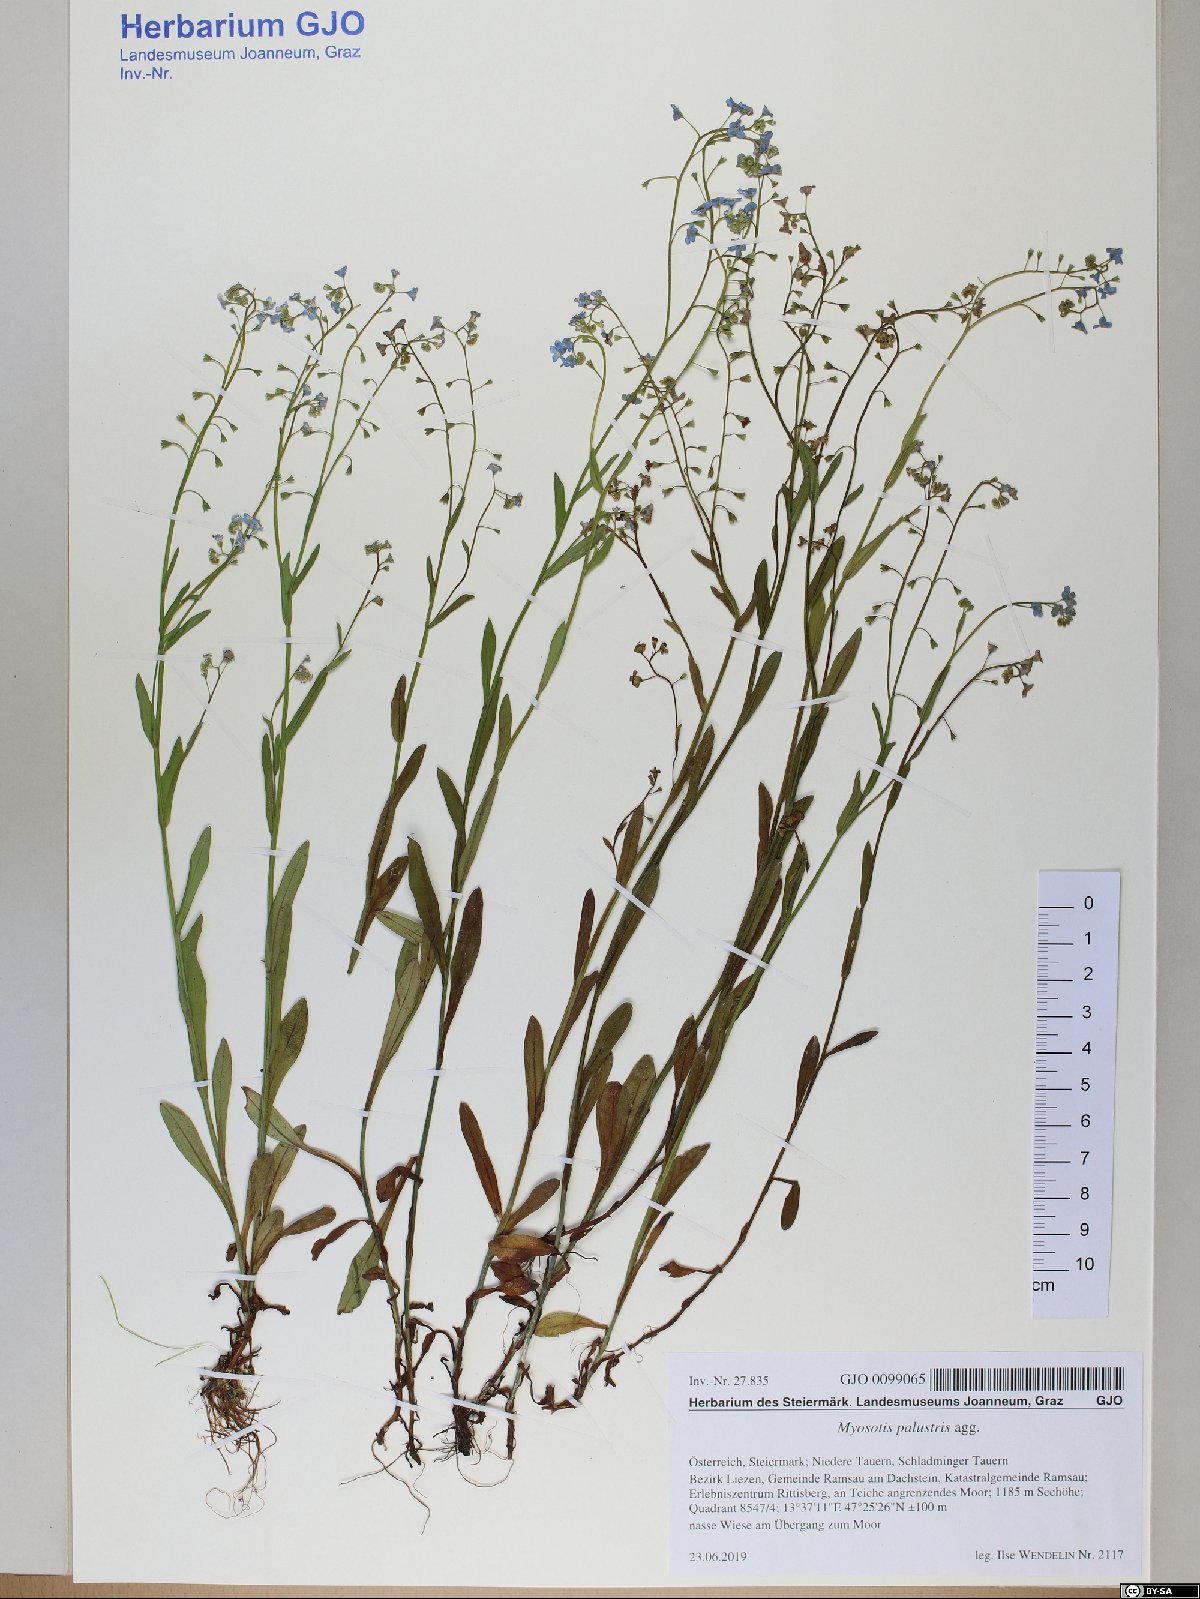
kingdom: Plantae
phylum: Tracheophyta
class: Magnoliopsida
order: Boraginales
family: Boraginaceae
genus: Myosotis
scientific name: Myosotis scorpioides
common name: Water forget-me-not
